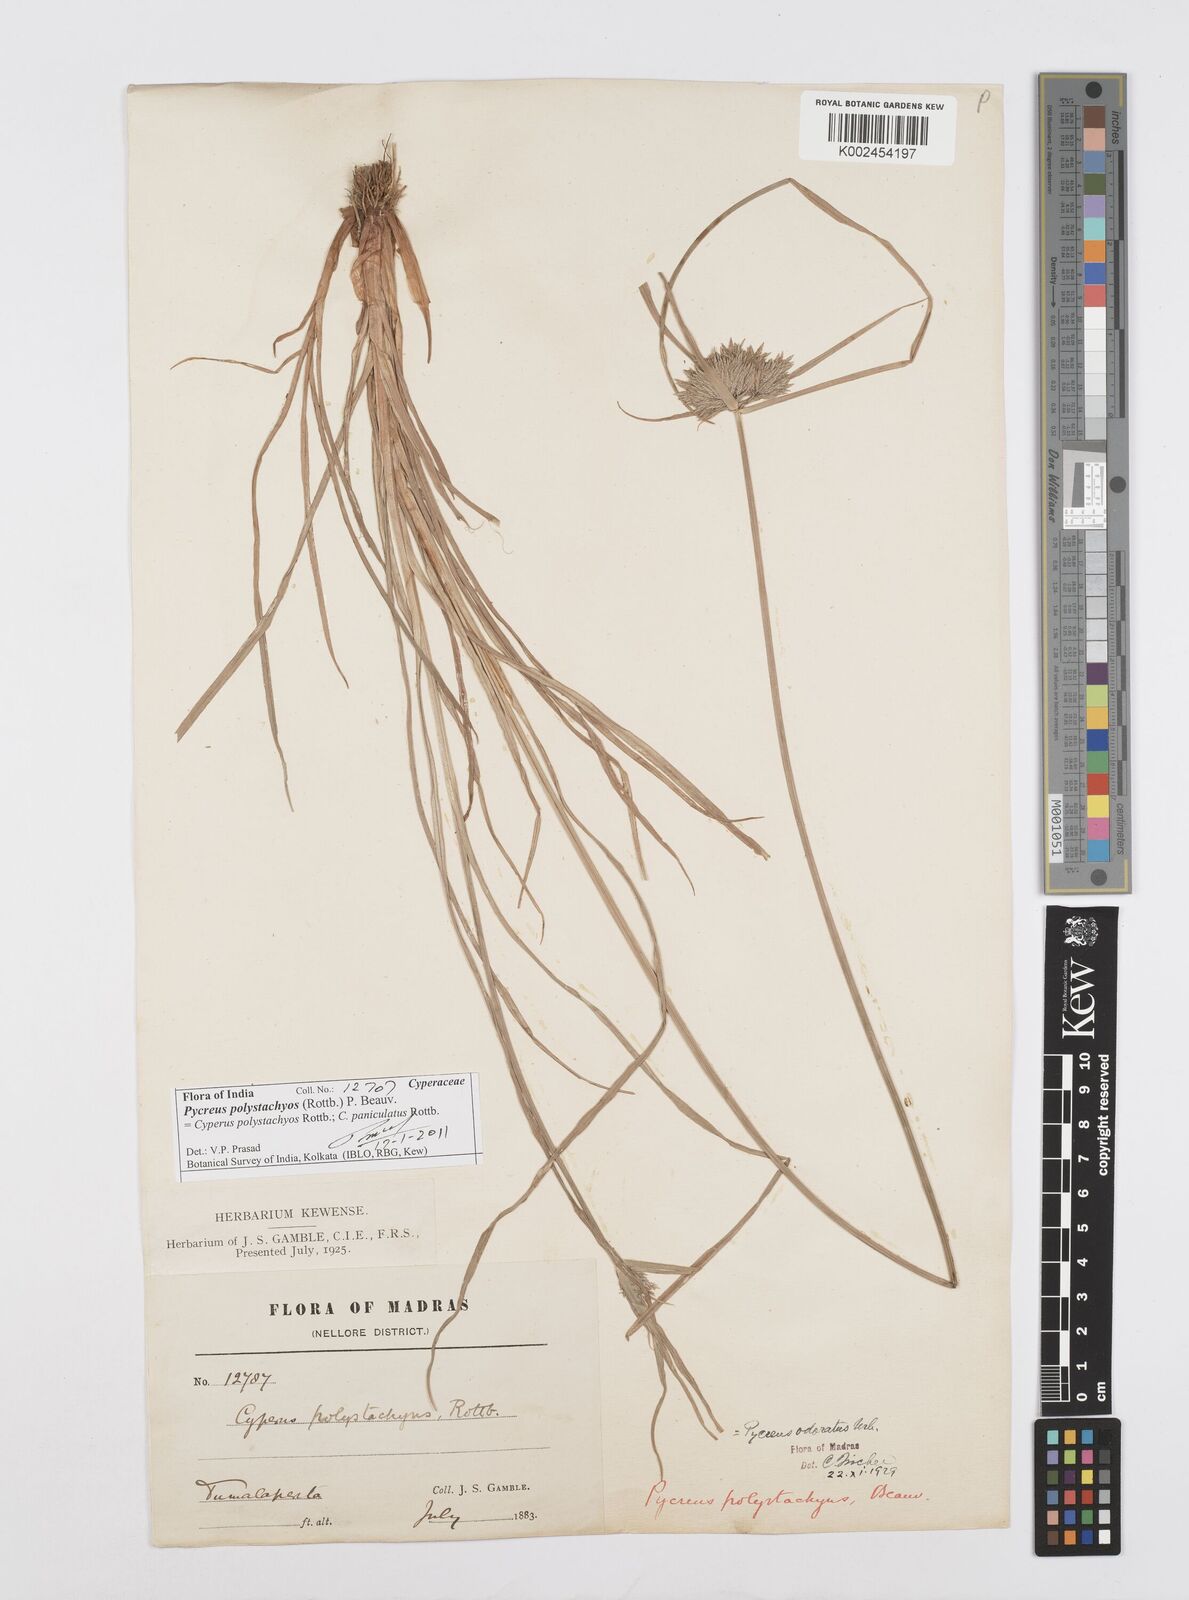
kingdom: Plantae
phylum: Tracheophyta
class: Liliopsida
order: Poales
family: Cyperaceae
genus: Cyperus
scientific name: Cyperus polystachyos
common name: Bunchy flat sedge
